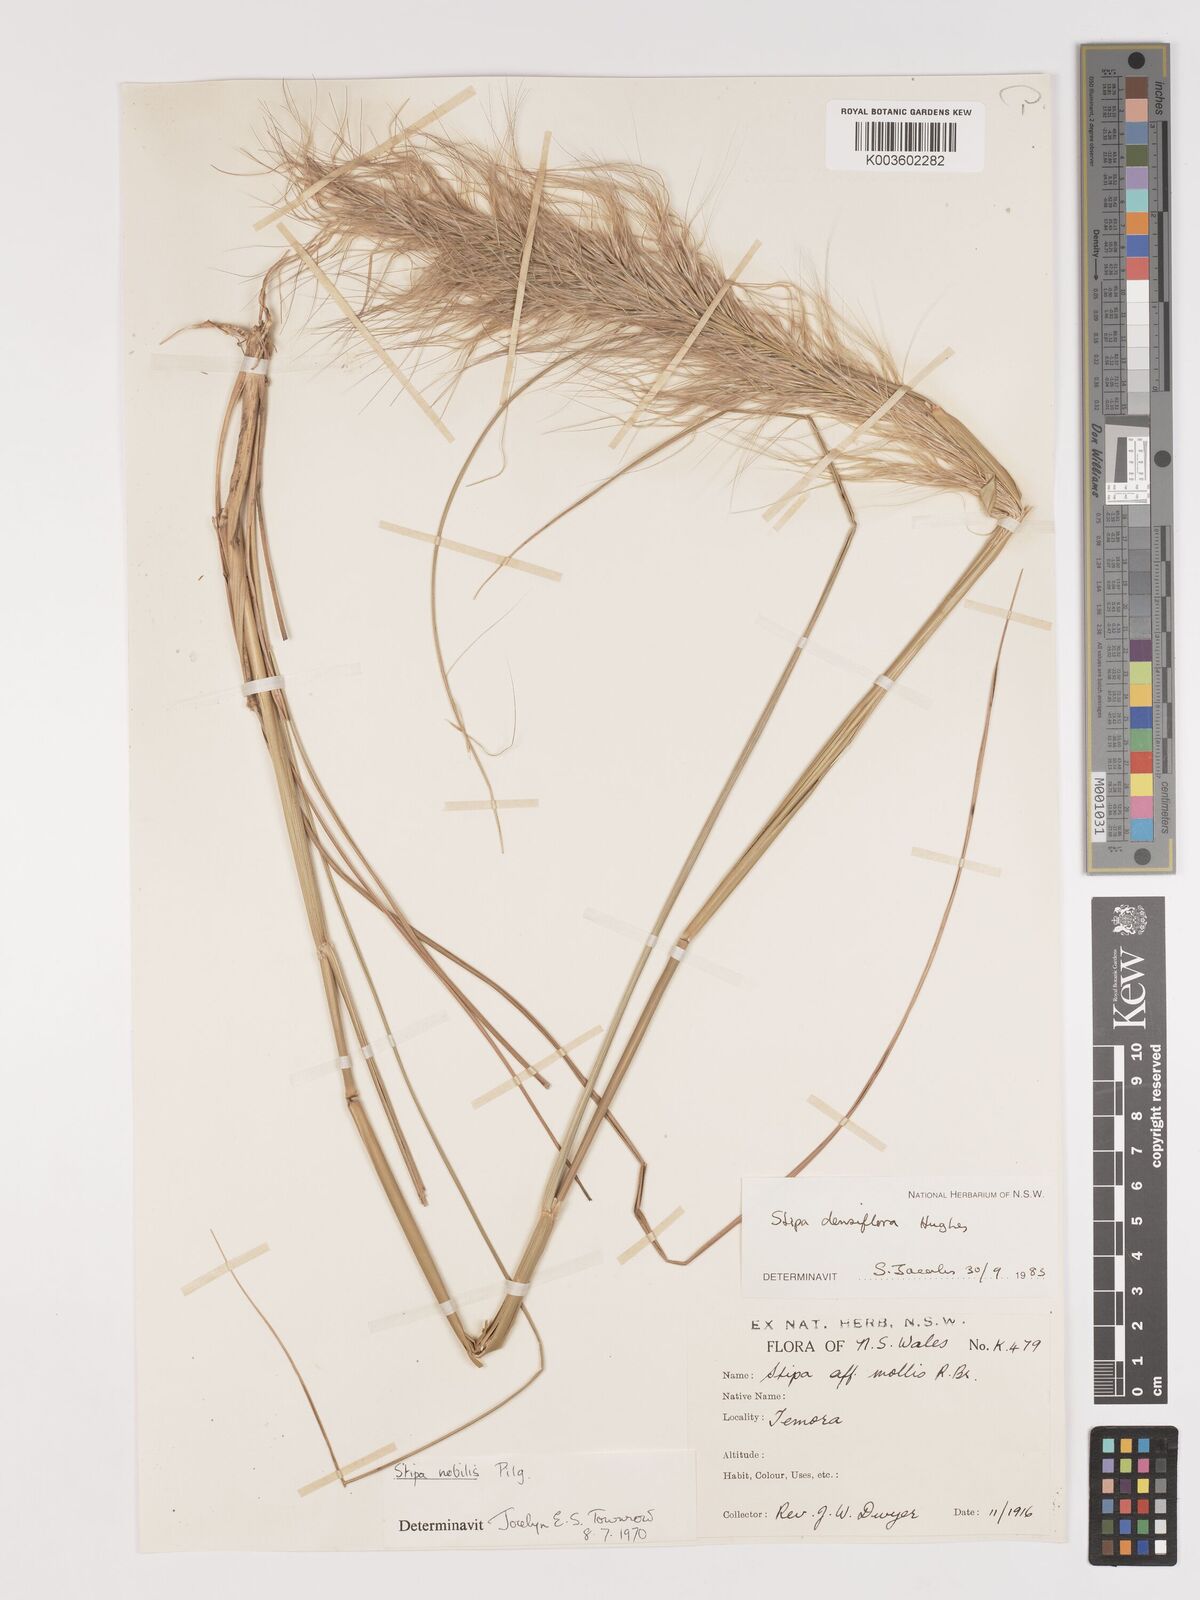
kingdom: Plantae
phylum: Tracheophyta
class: Liliopsida
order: Poales
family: Poaceae
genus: Stipa
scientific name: Stipa
